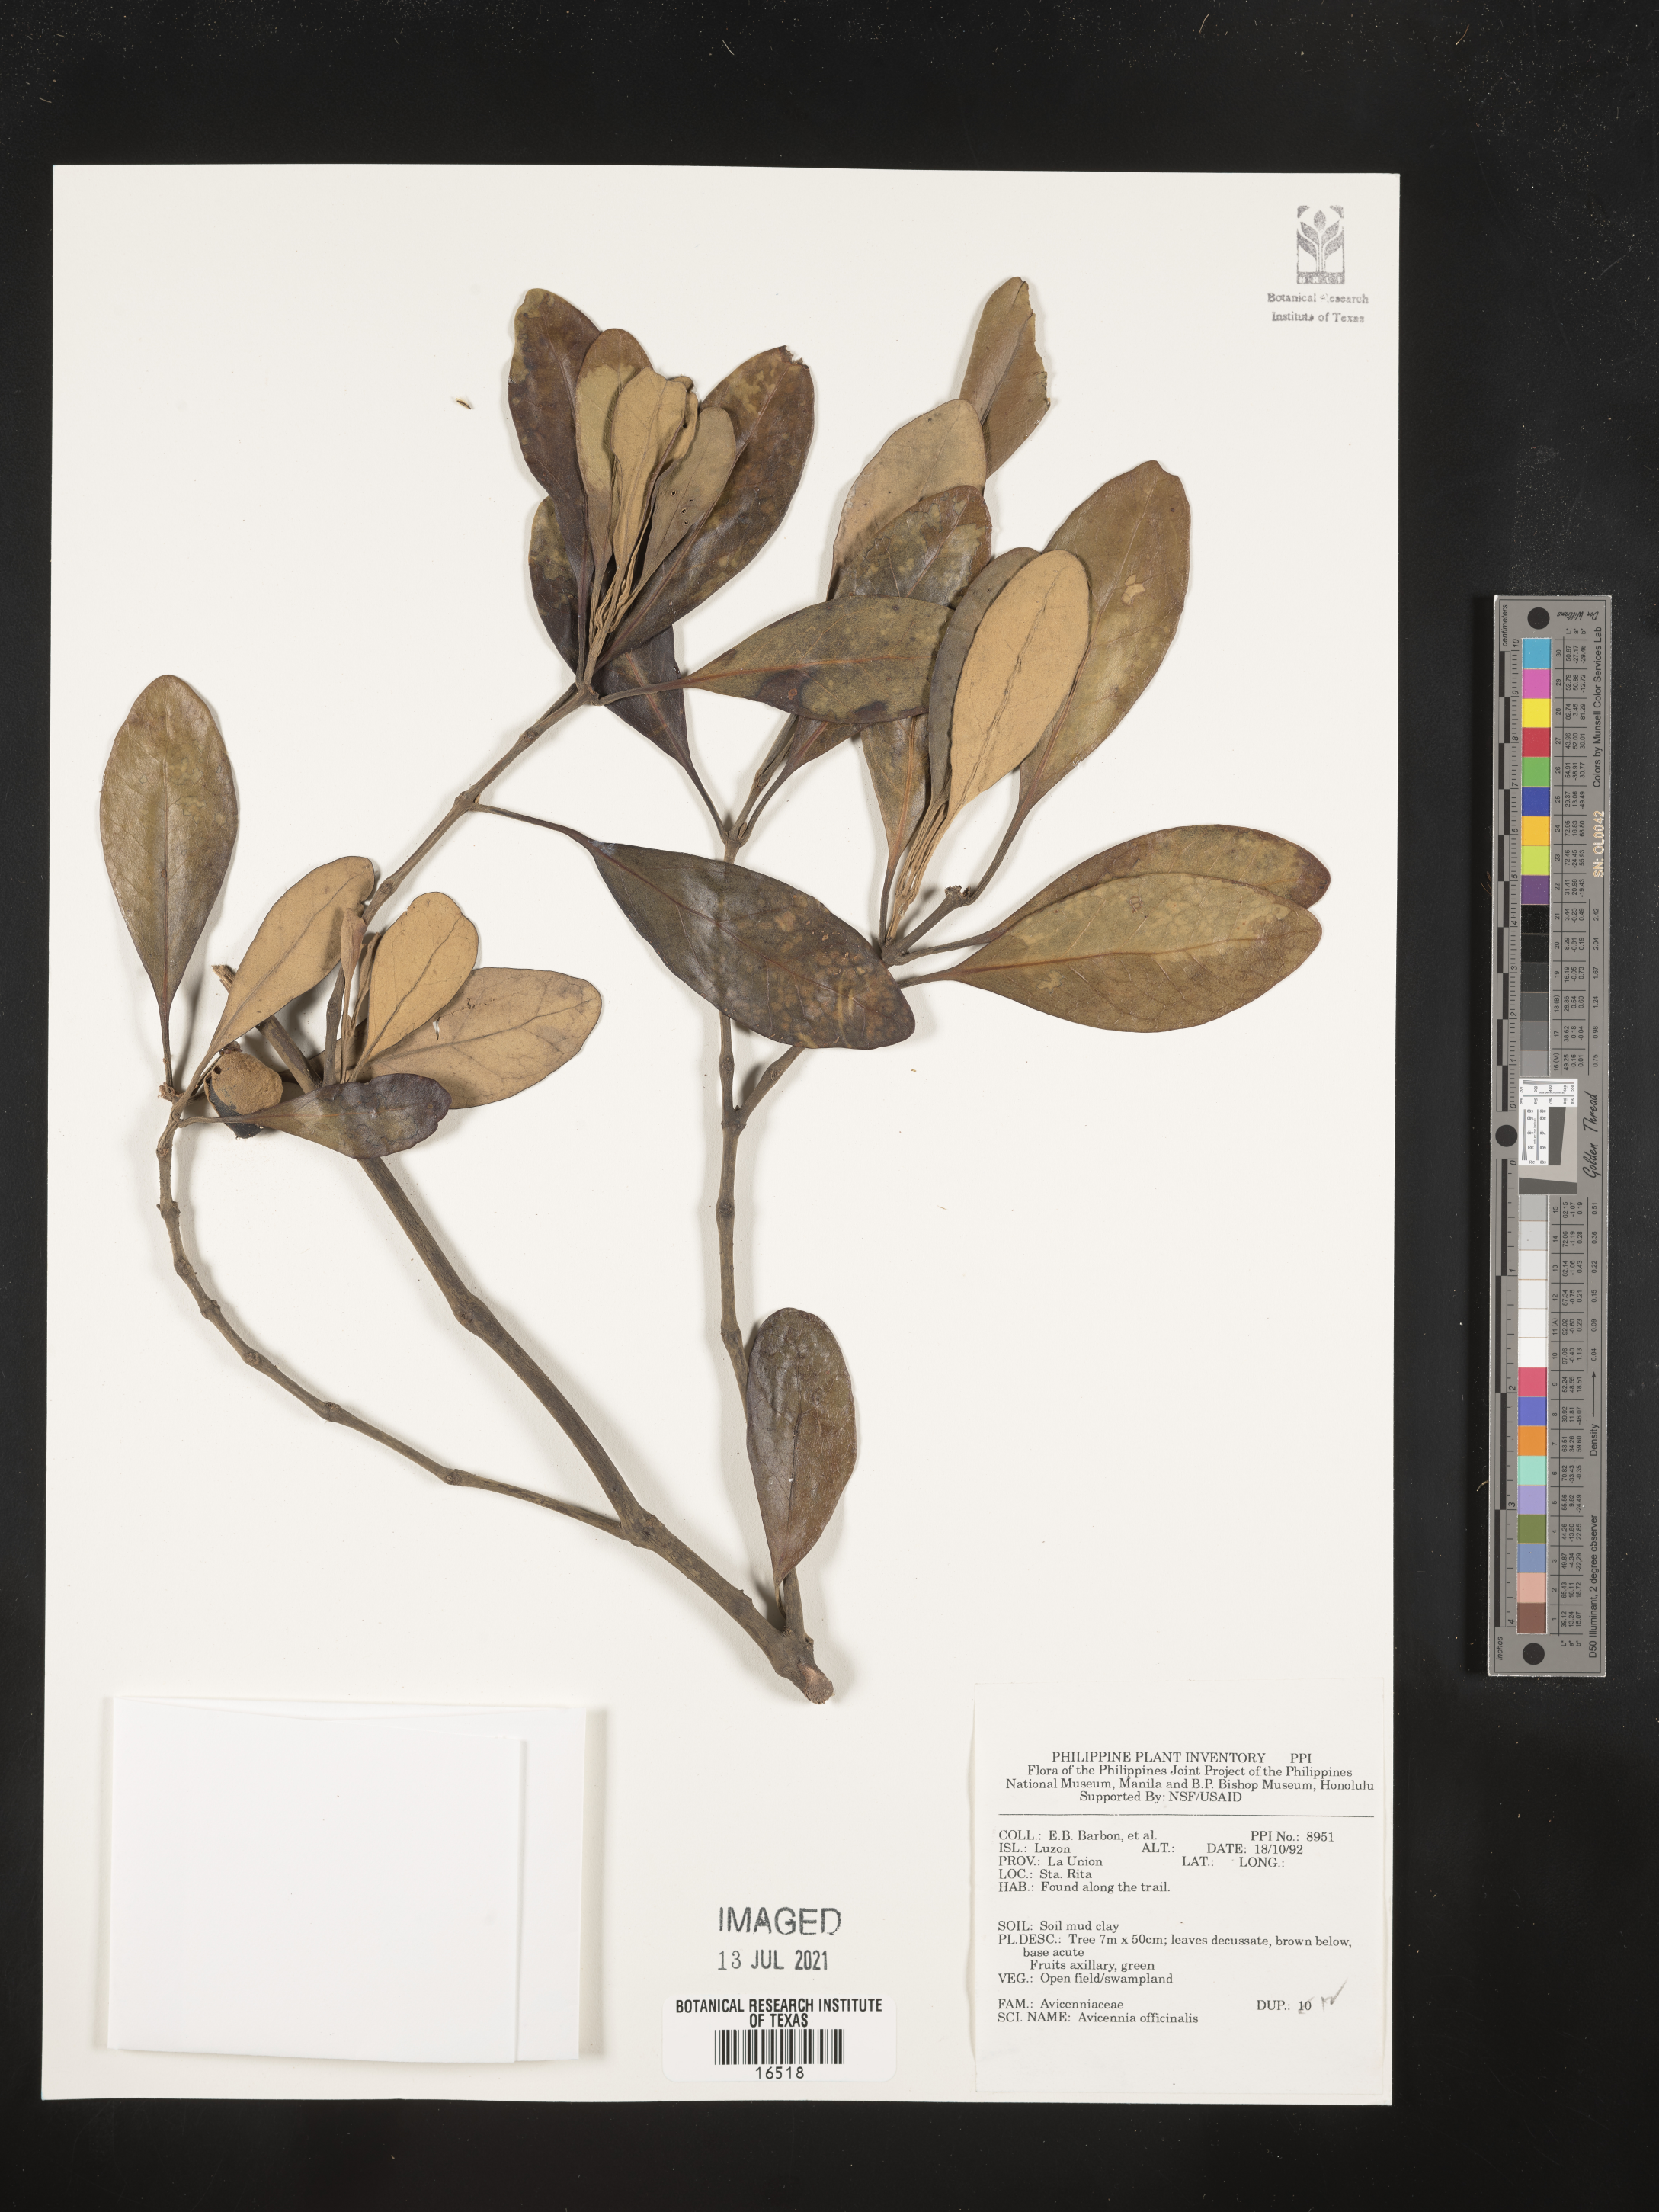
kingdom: Plantae
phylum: Tracheophyta
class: Magnoliopsida
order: Lamiales
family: Acanthaceae
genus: Avicennia
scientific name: Avicennia officinalis
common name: Baen
